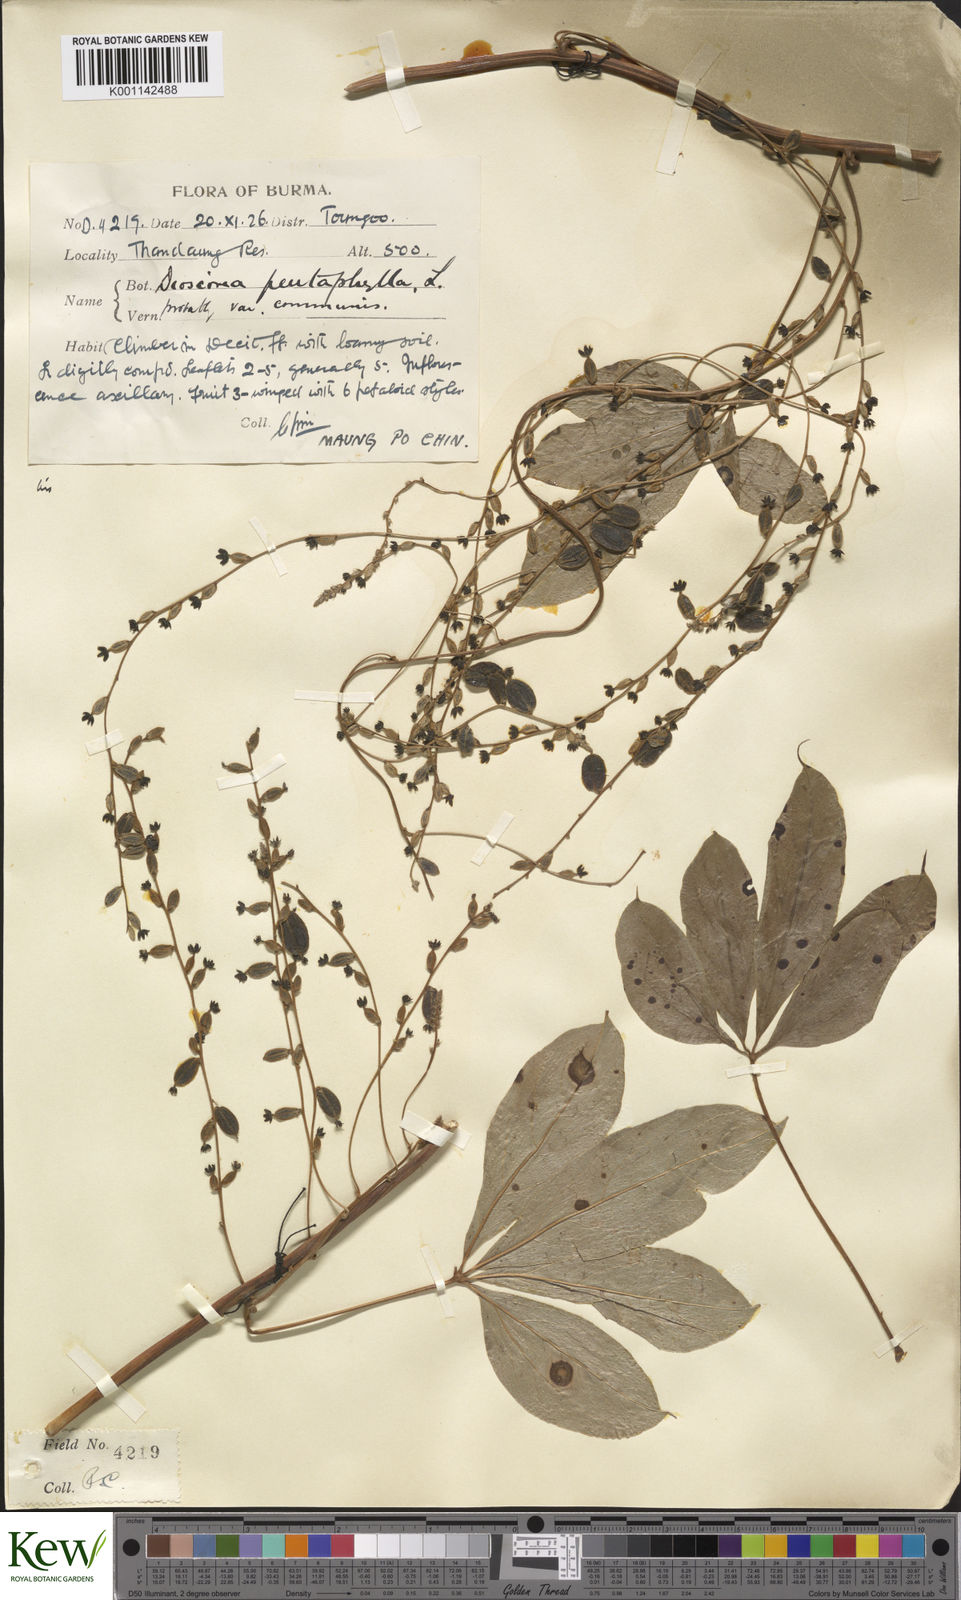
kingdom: Plantae
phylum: Tracheophyta
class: Liliopsida
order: Dioscoreales
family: Dioscoreaceae
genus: Dioscorea
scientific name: Dioscorea pentaphylla
